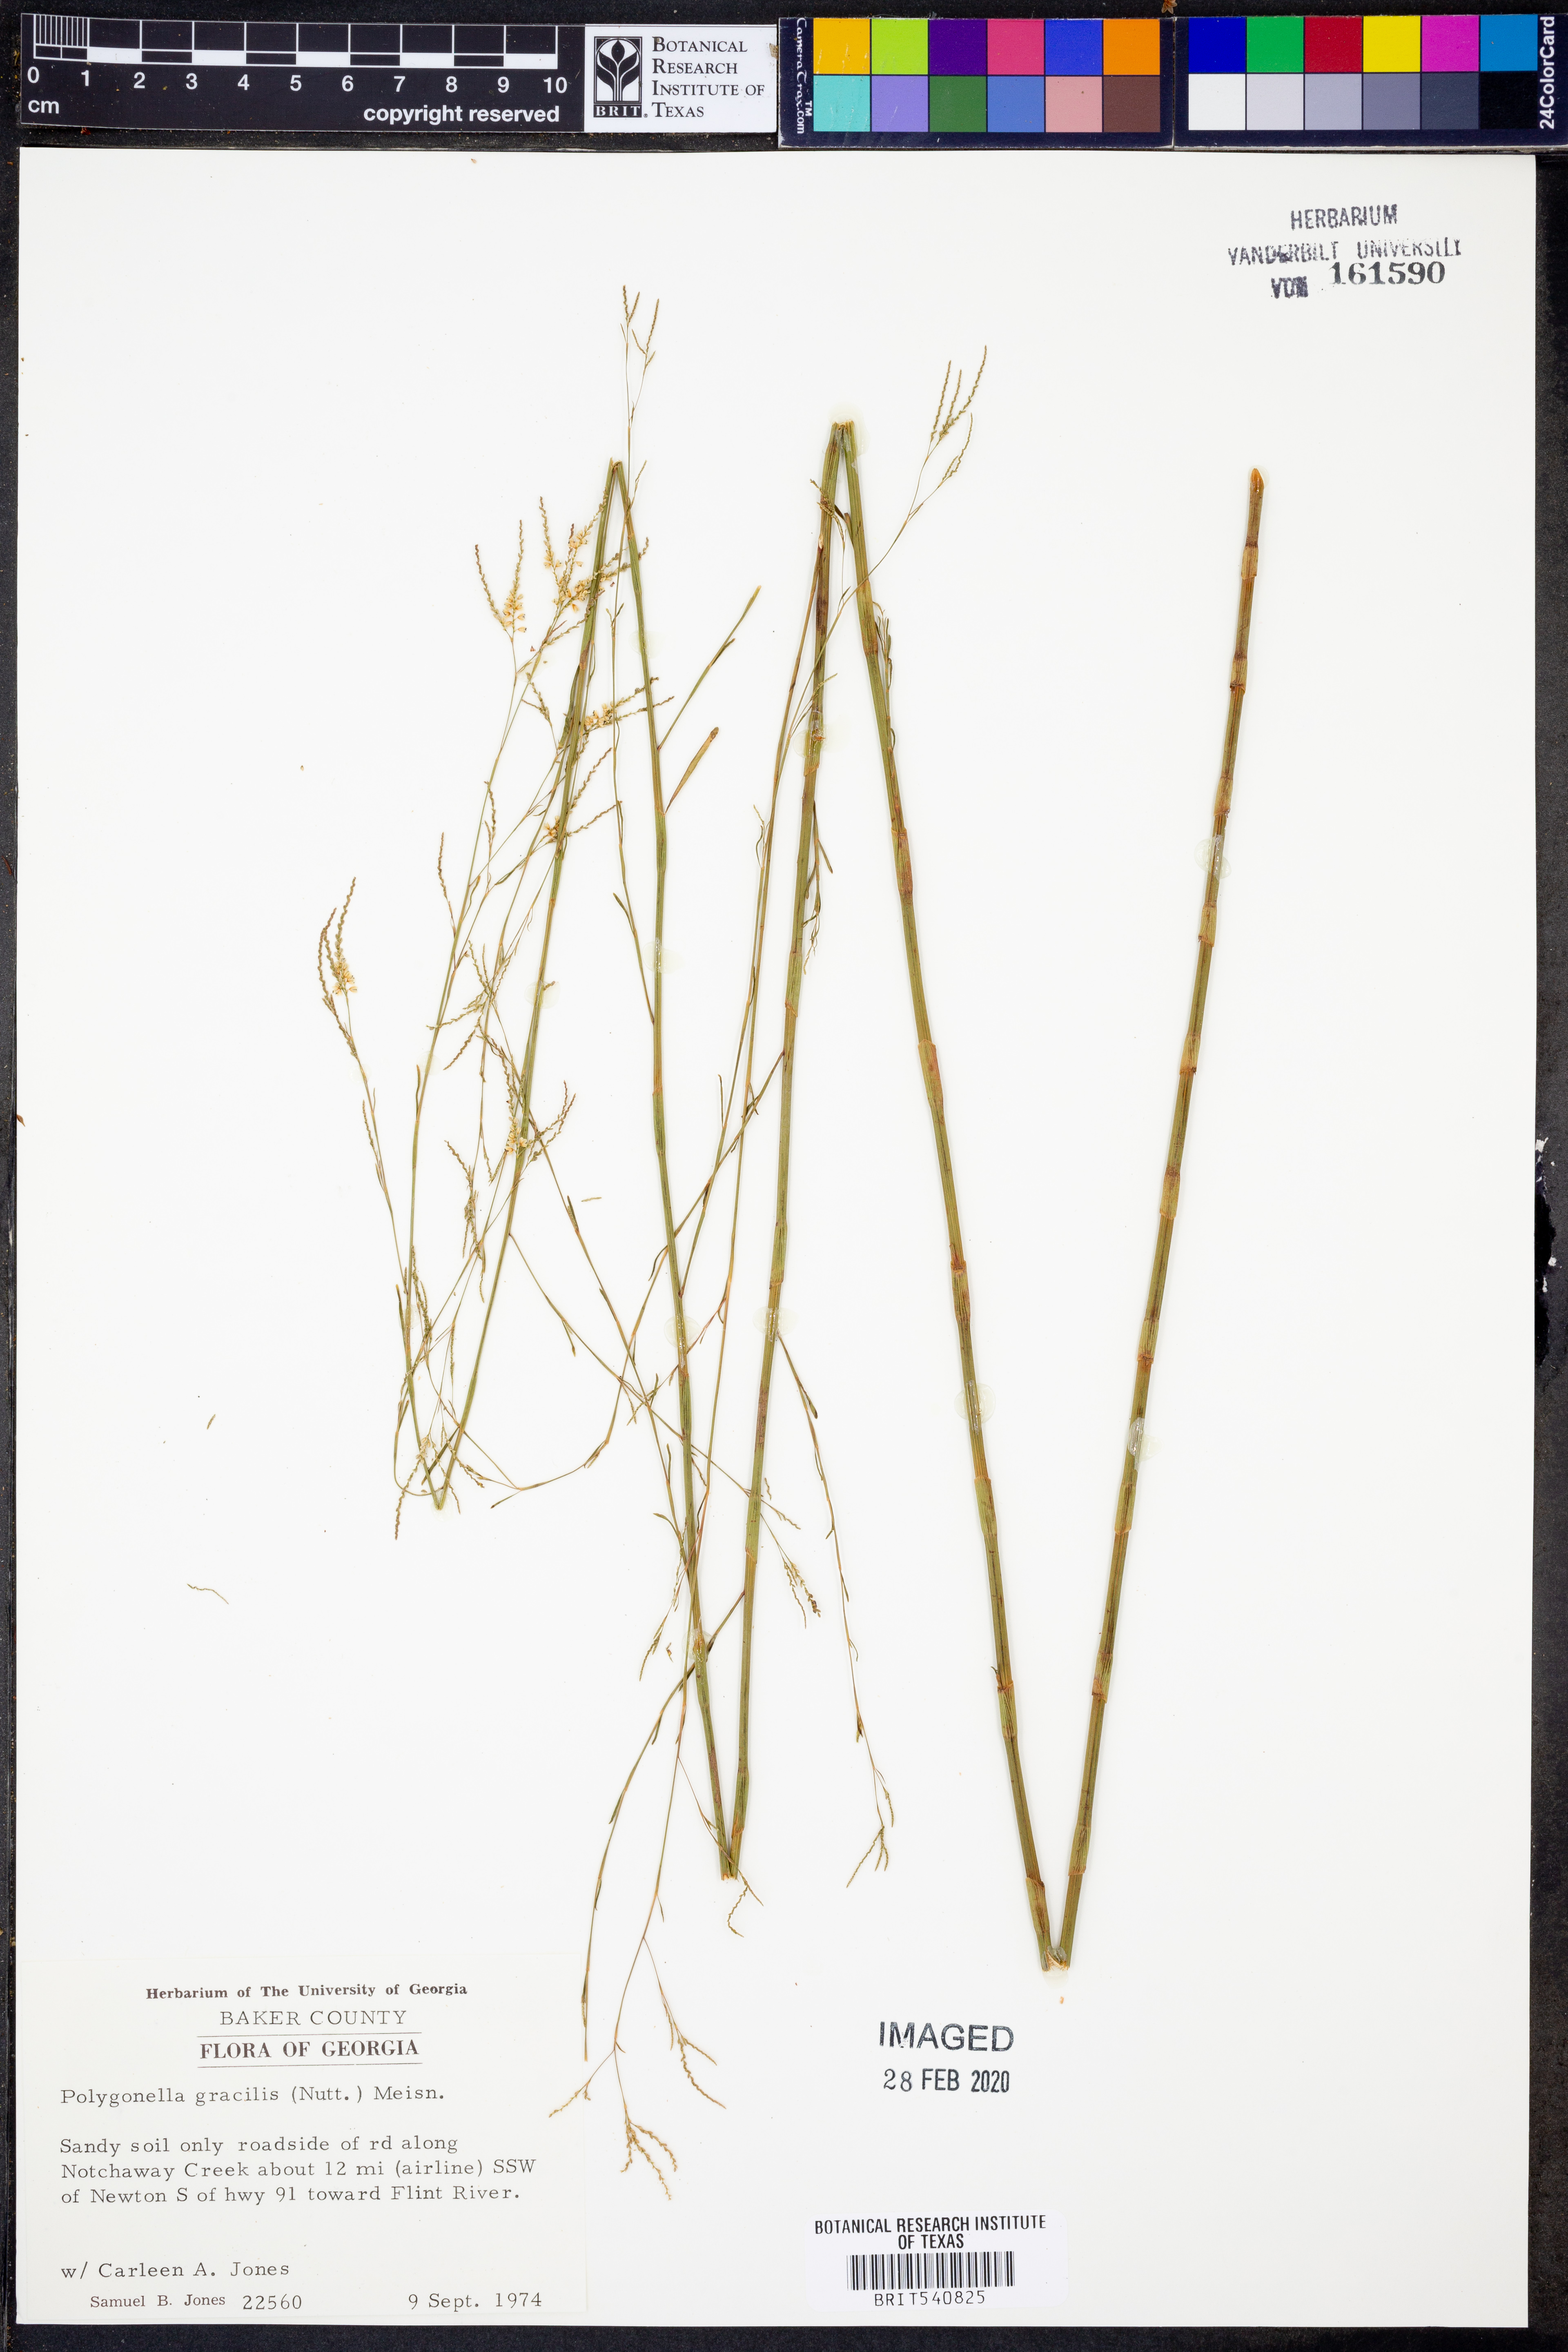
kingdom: Plantae
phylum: Tracheophyta
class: Magnoliopsida
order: Caryophyllales
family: Polygonaceae
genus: Polygonella
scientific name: Polygonella gracilis
